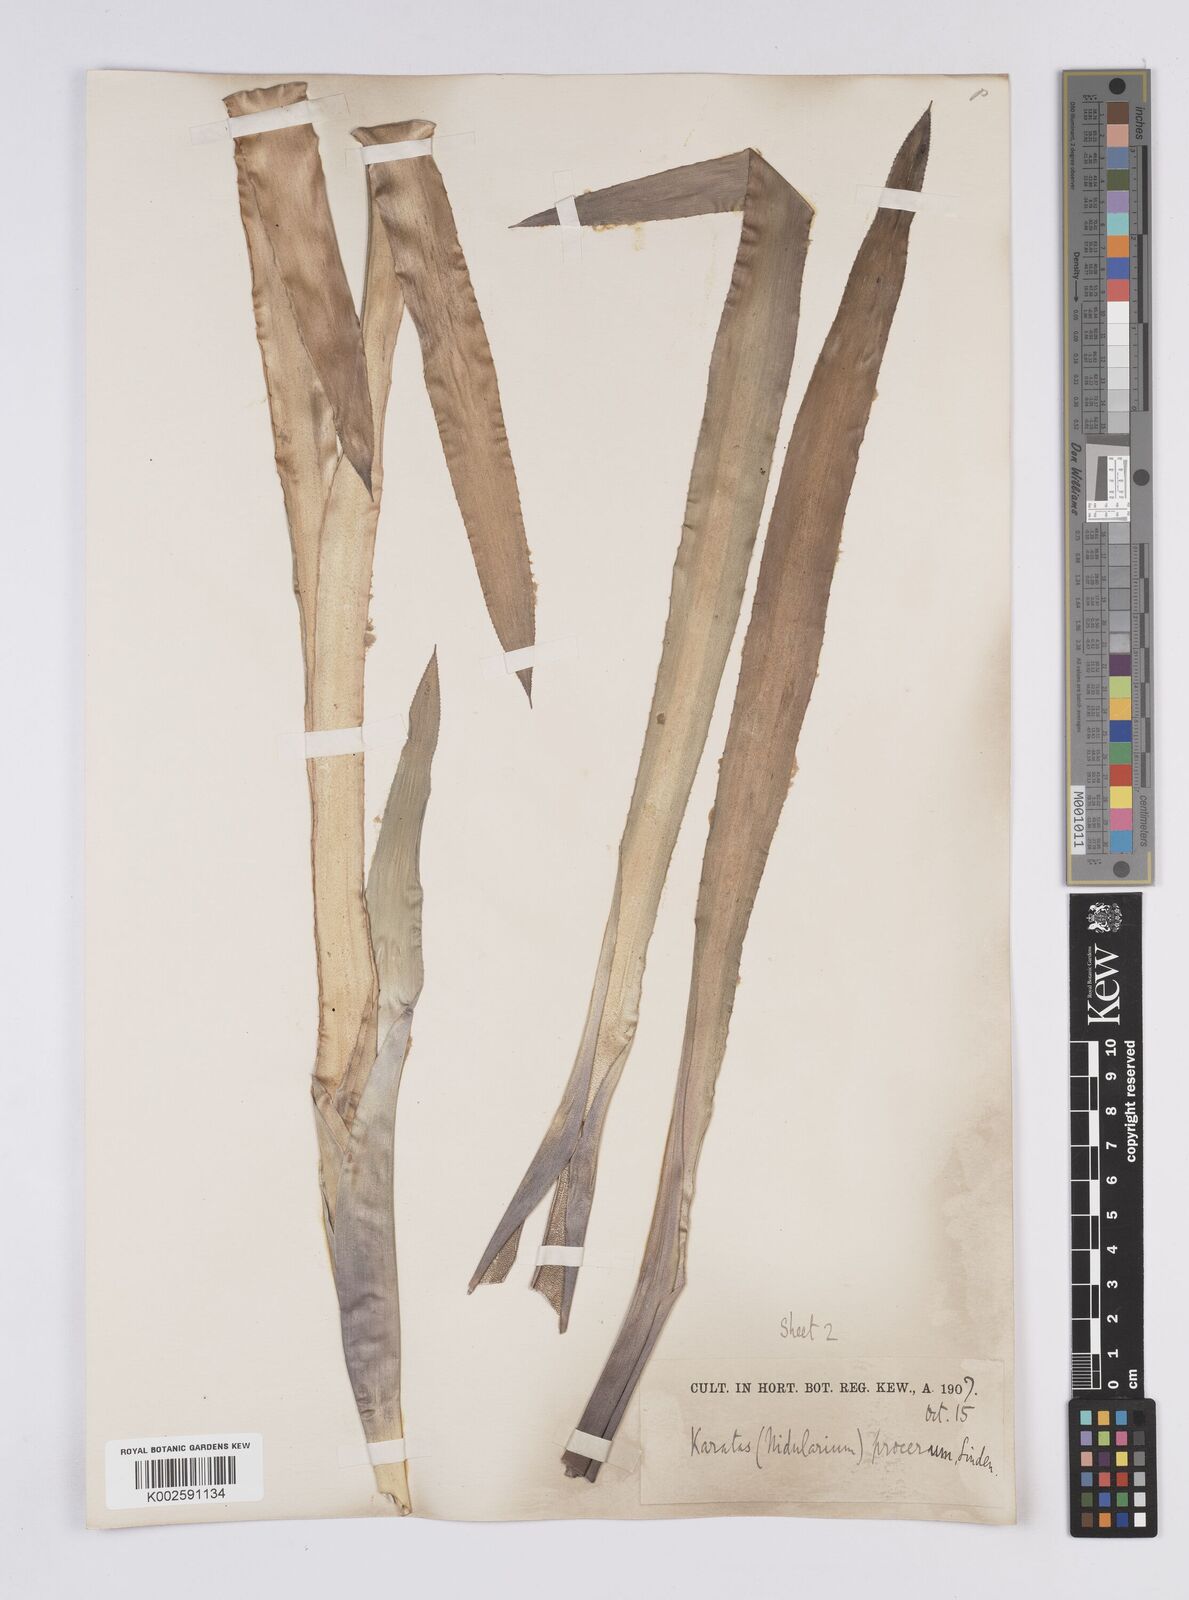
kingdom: Plantae
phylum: Tracheophyta
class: Liliopsida
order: Poales
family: Bromeliaceae
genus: Nidularium
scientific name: Nidularium procerum
